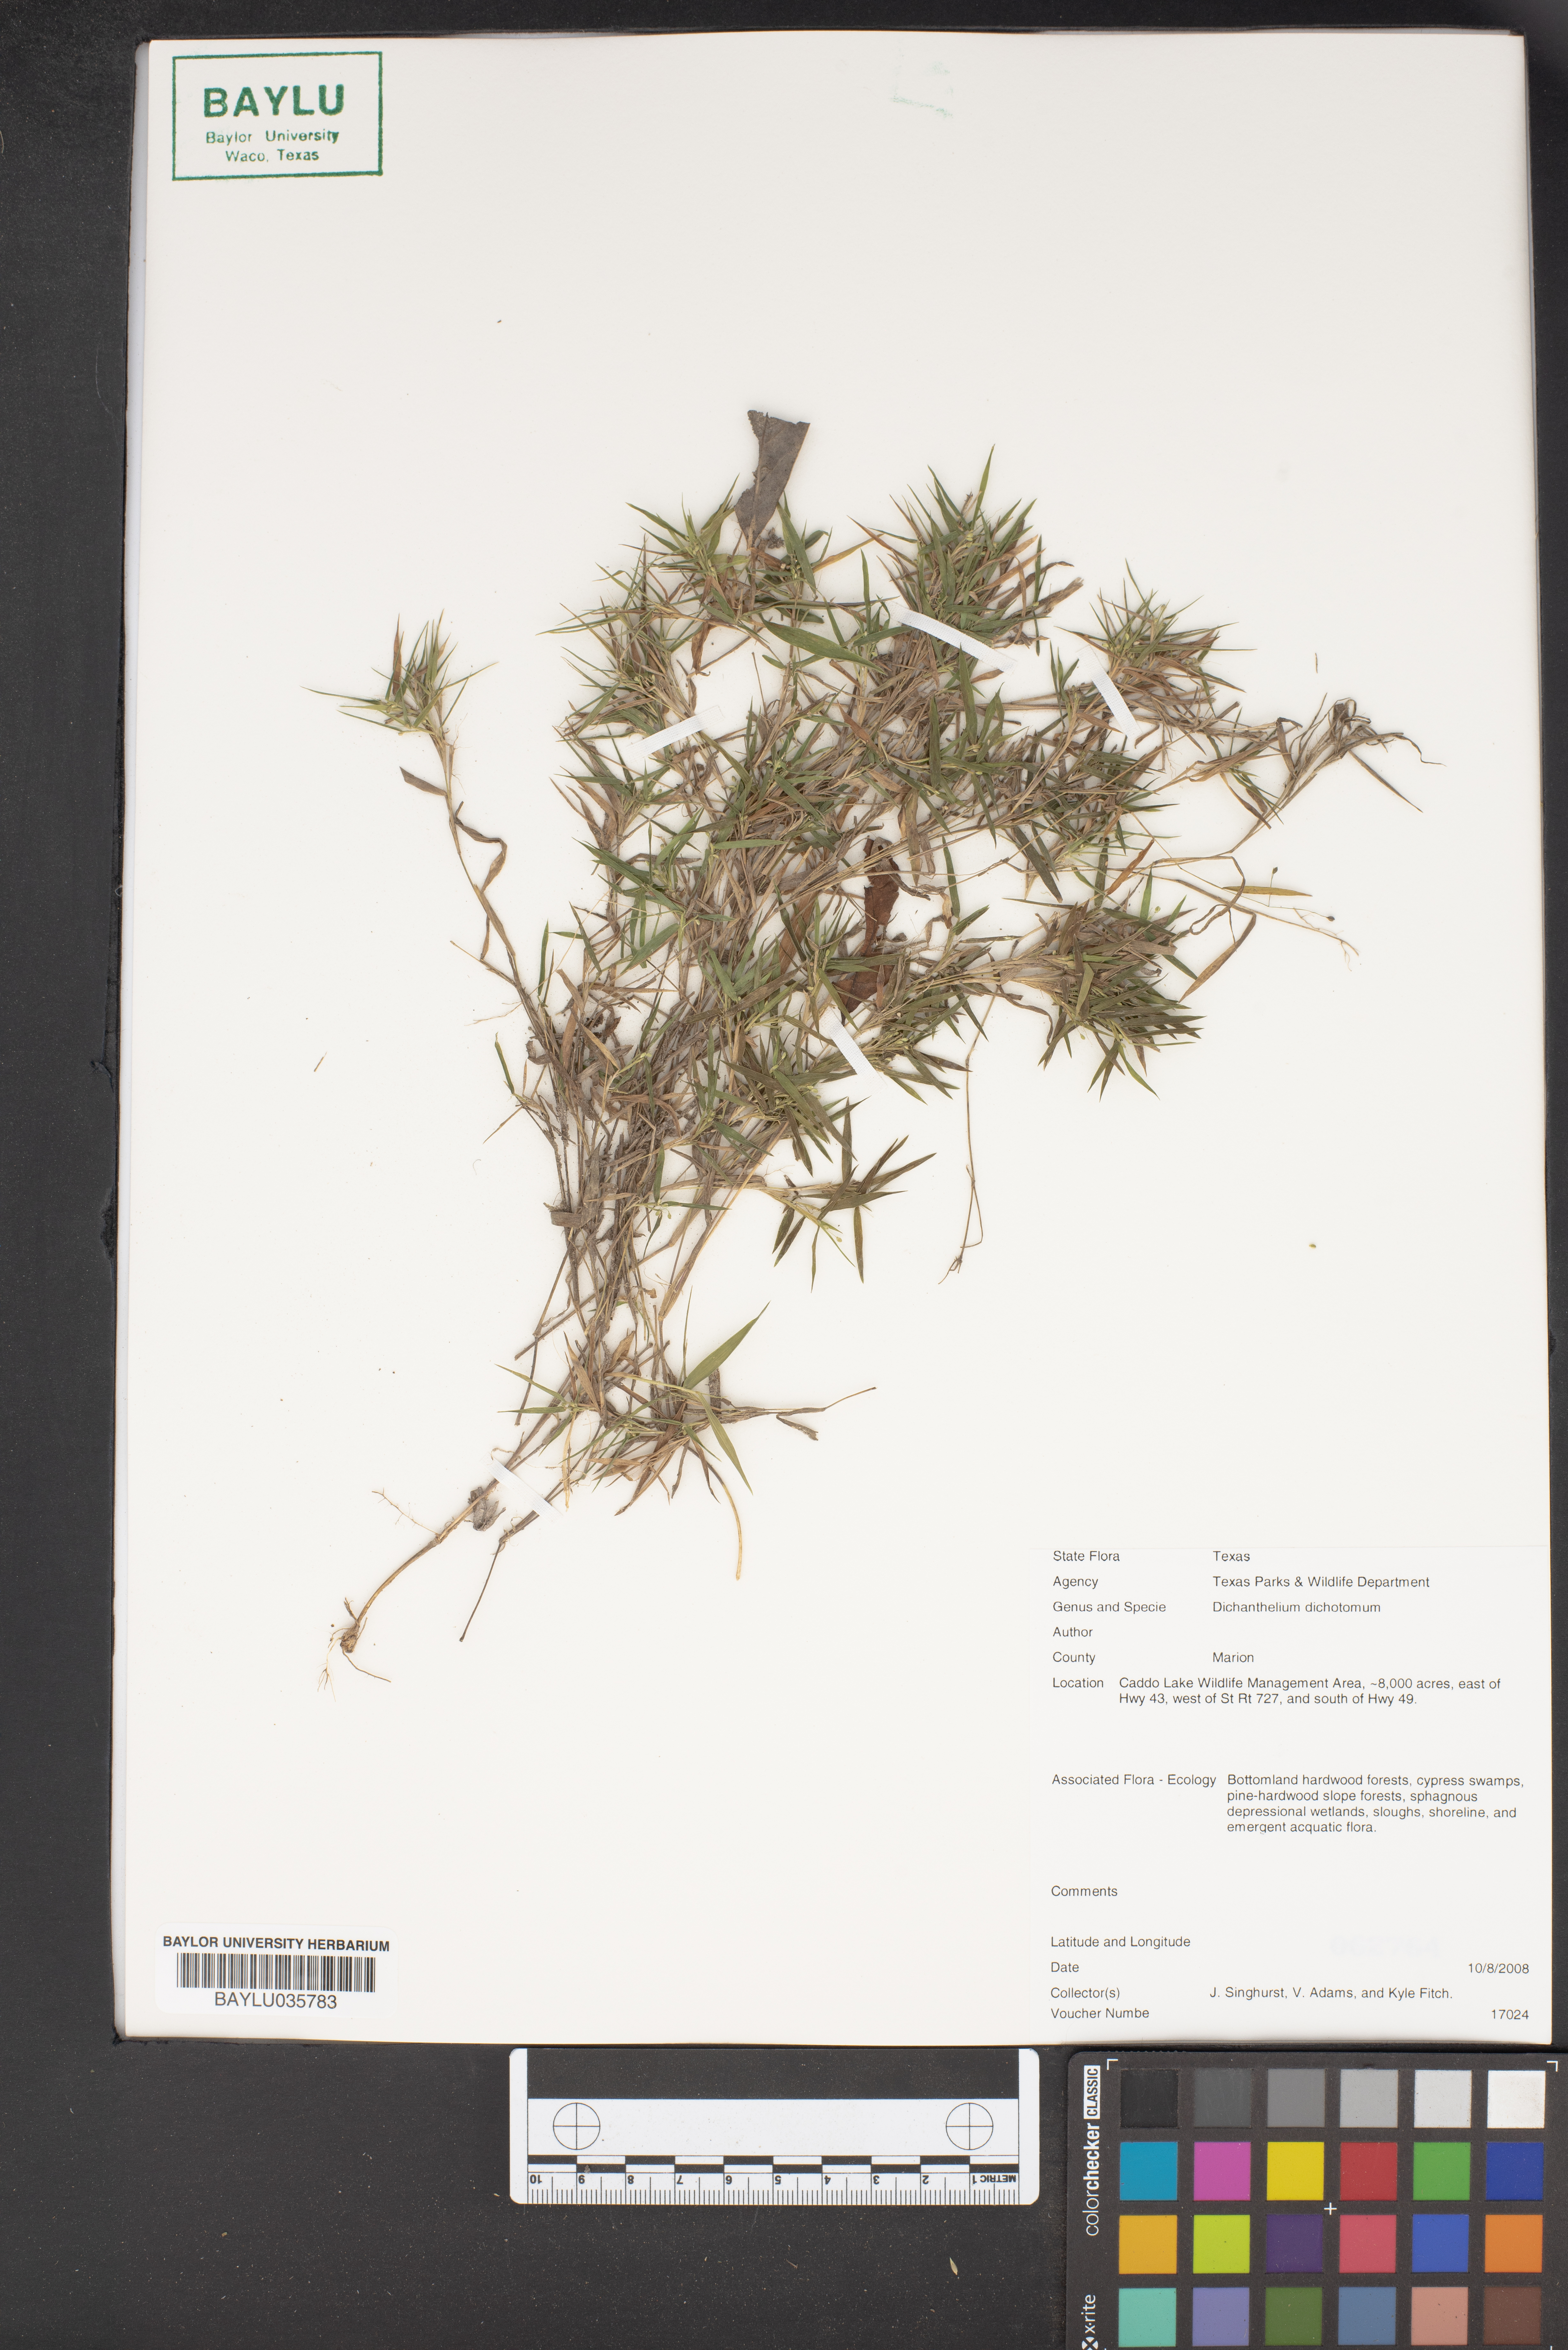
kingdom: Plantae
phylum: Tracheophyta
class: Liliopsida
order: Poales
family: Poaceae
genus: Dichanthelium
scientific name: Dichanthelium dichotomum
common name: Cypress panicgrass
